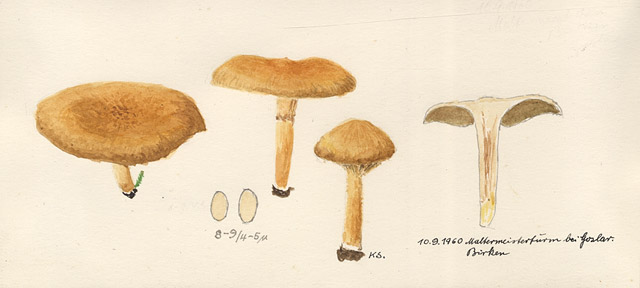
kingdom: Fungi
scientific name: Fungi
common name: Fungi
